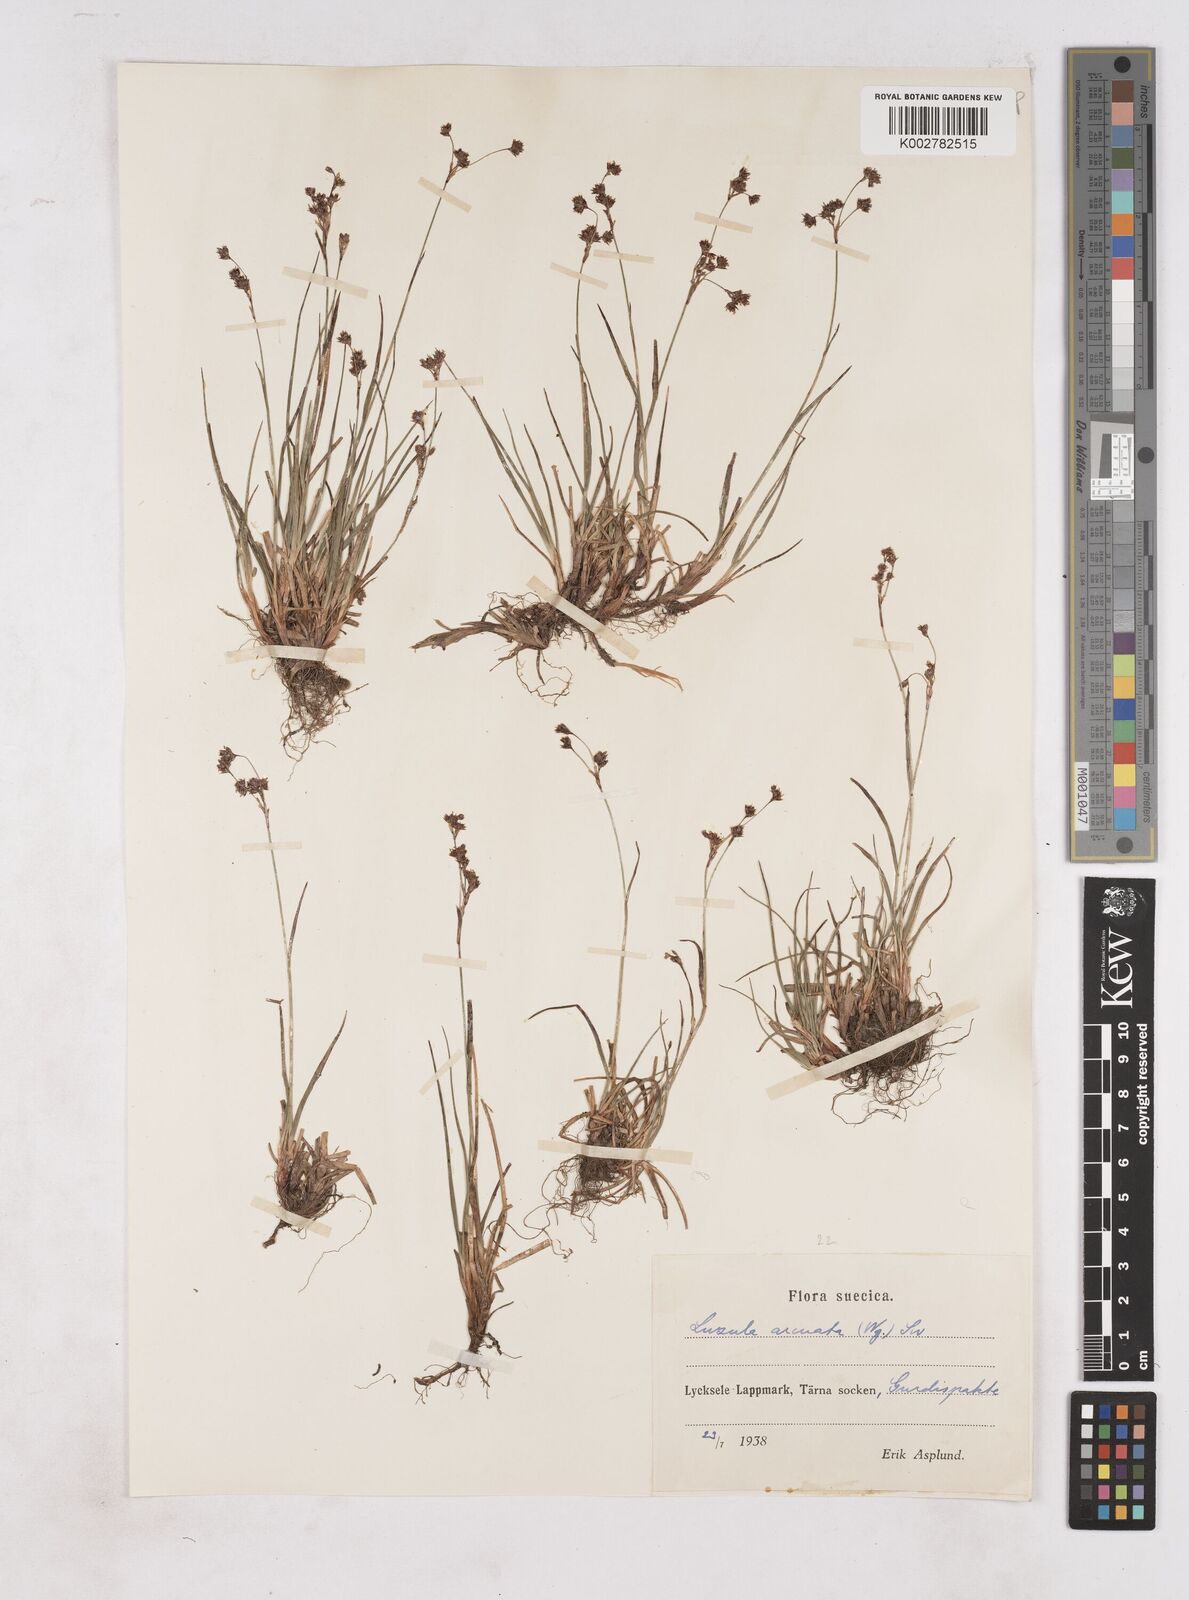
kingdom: Plantae
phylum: Tracheophyta
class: Liliopsida
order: Poales
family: Juncaceae
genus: Luzula
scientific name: Luzula arcuata
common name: Curved wood-rush
